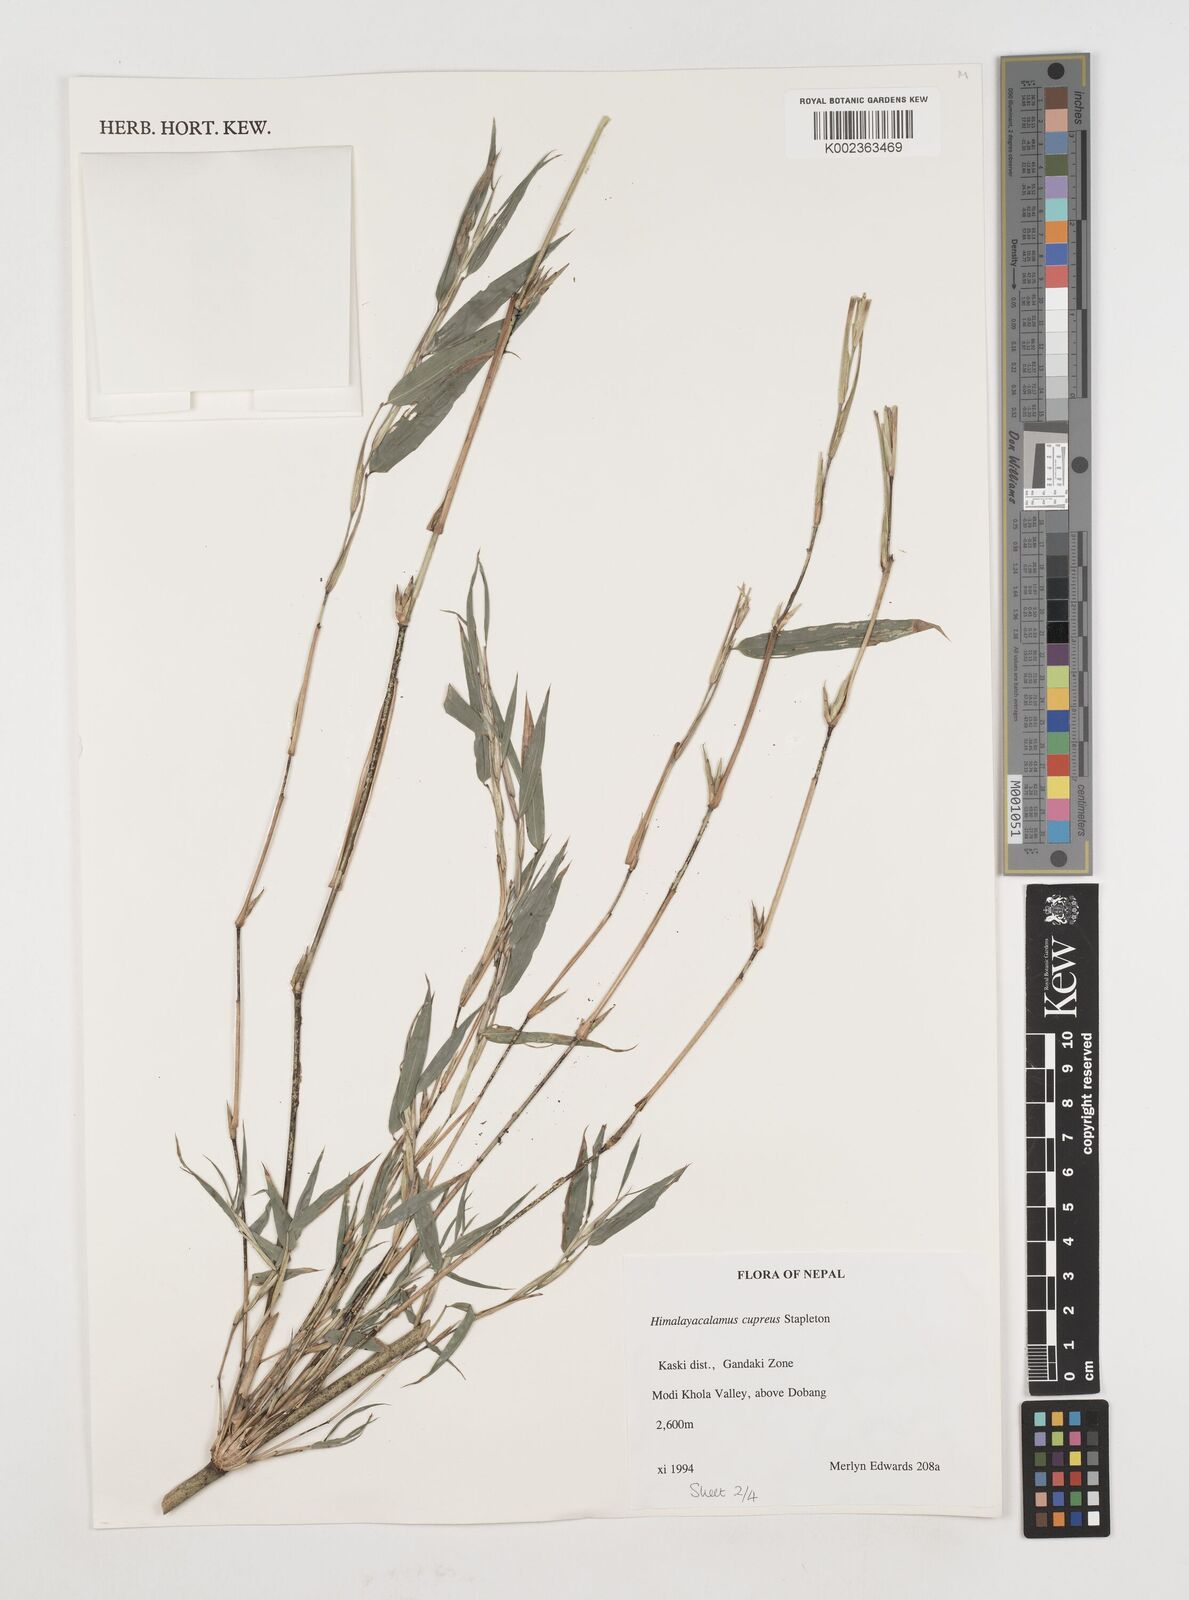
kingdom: Plantae
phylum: Tracheophyta
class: Liliopsida
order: Poales
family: Poaceae
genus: Himalayacalamus
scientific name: Himalayacalamus cupreus
